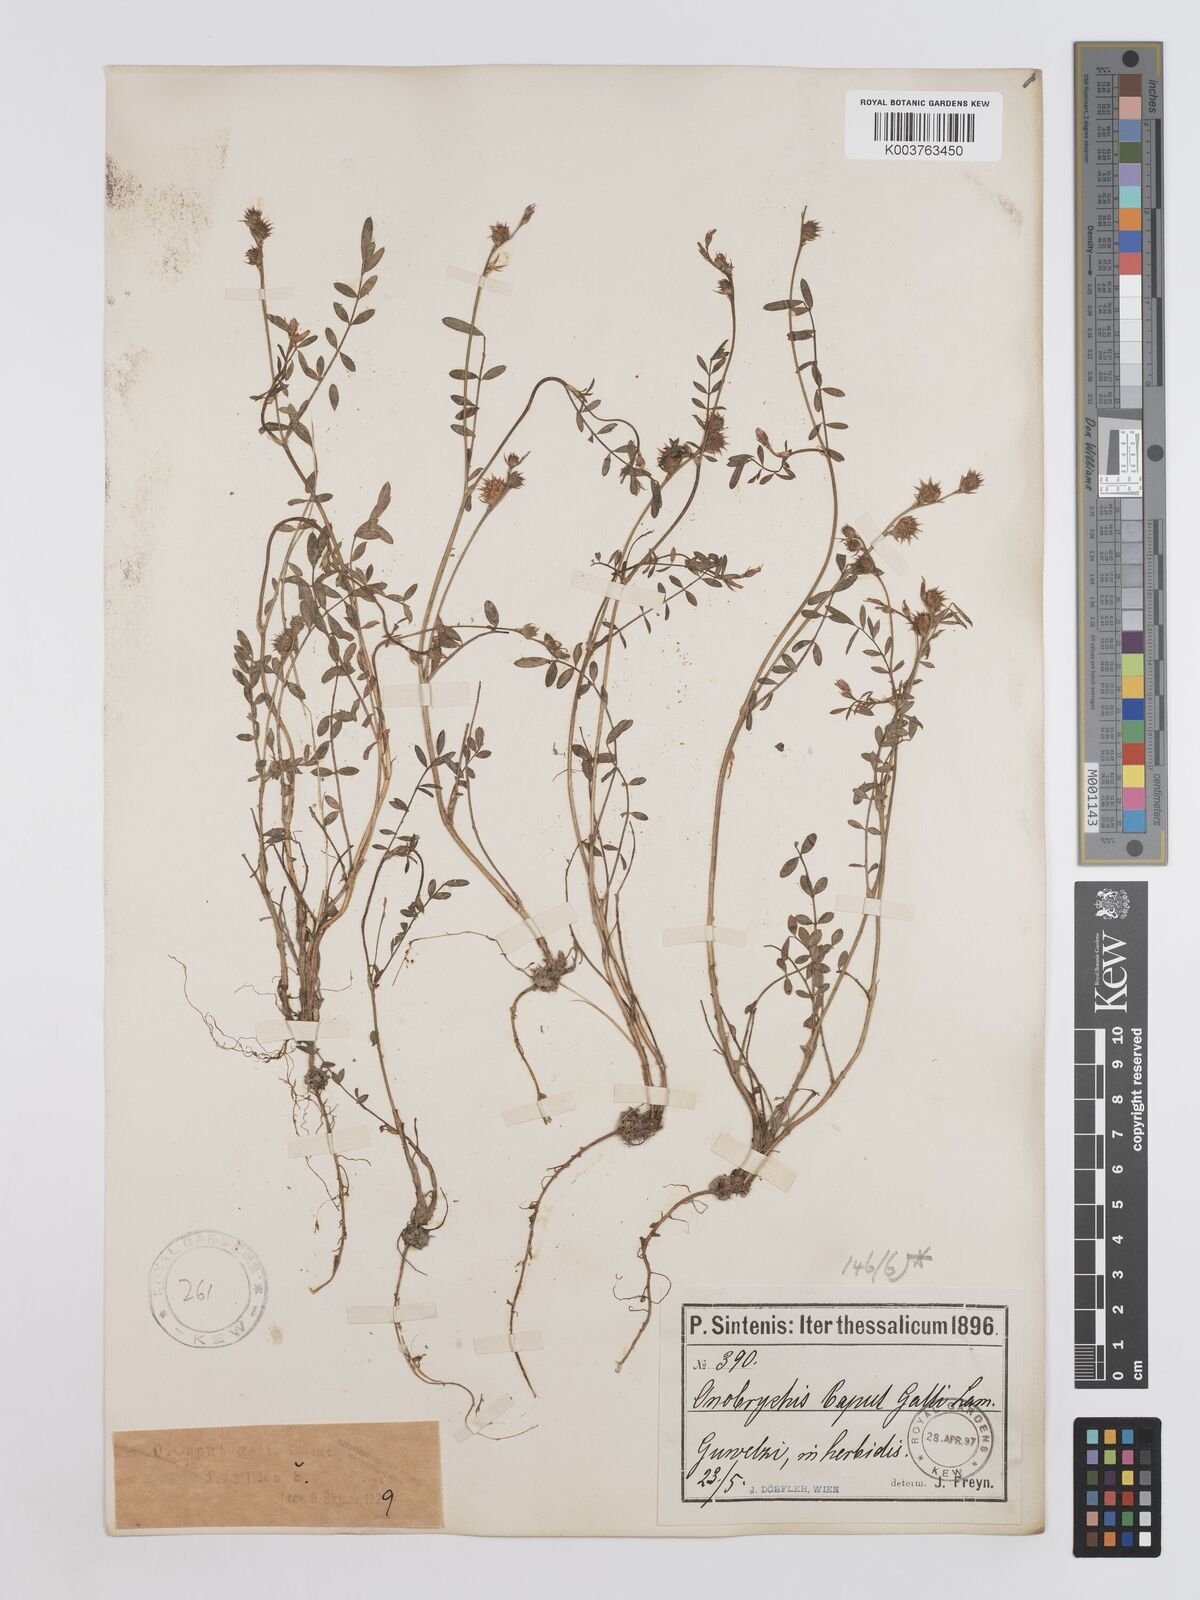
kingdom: Plantae
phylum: Tracheophyta
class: Magnoliopsida
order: Fabales
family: Fabaceae
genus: Onobrychis
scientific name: Onobrychis caput-galli
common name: Cockscomb sainfoin
